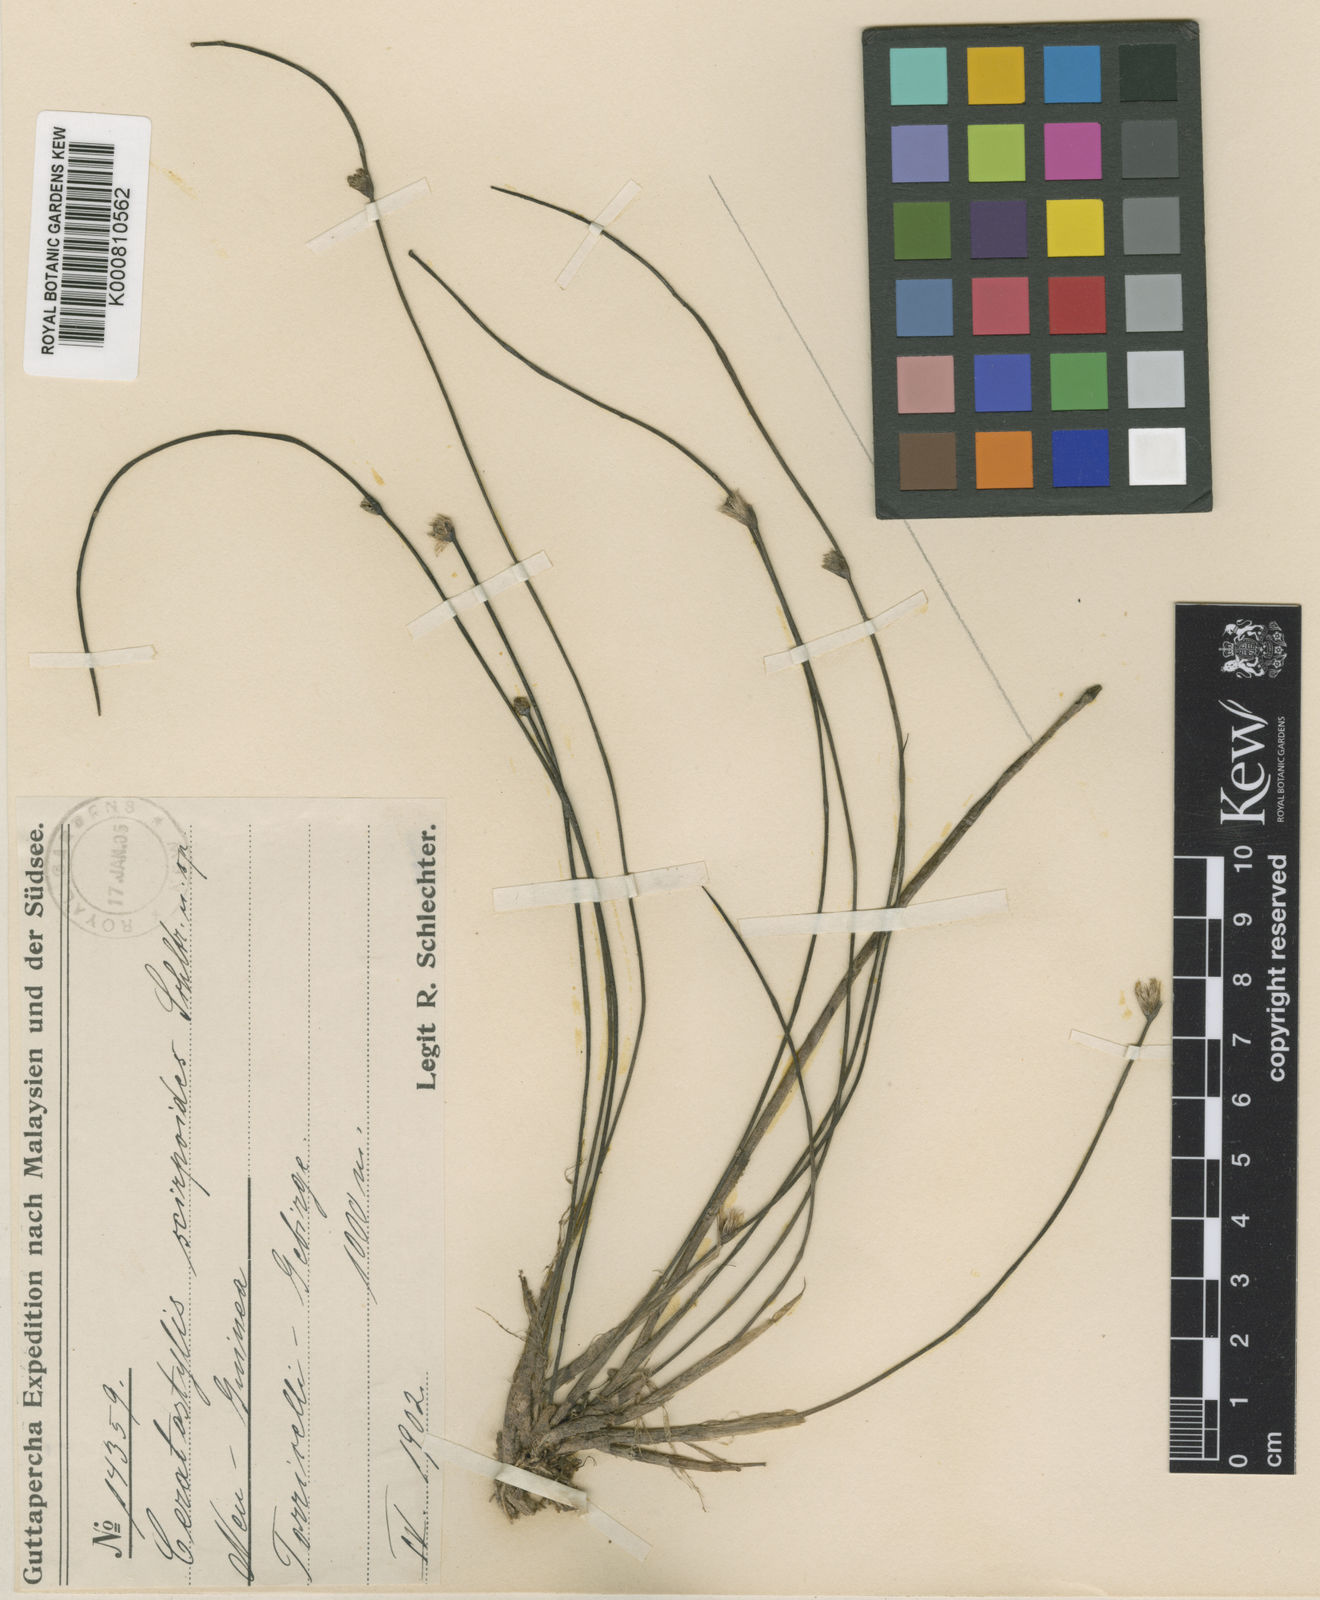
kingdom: Plantae
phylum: Tracheophyta
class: Liliopsida
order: Asparagales
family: Orchidaceae
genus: Ceratostylis
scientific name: Ceratostylis calcarata
